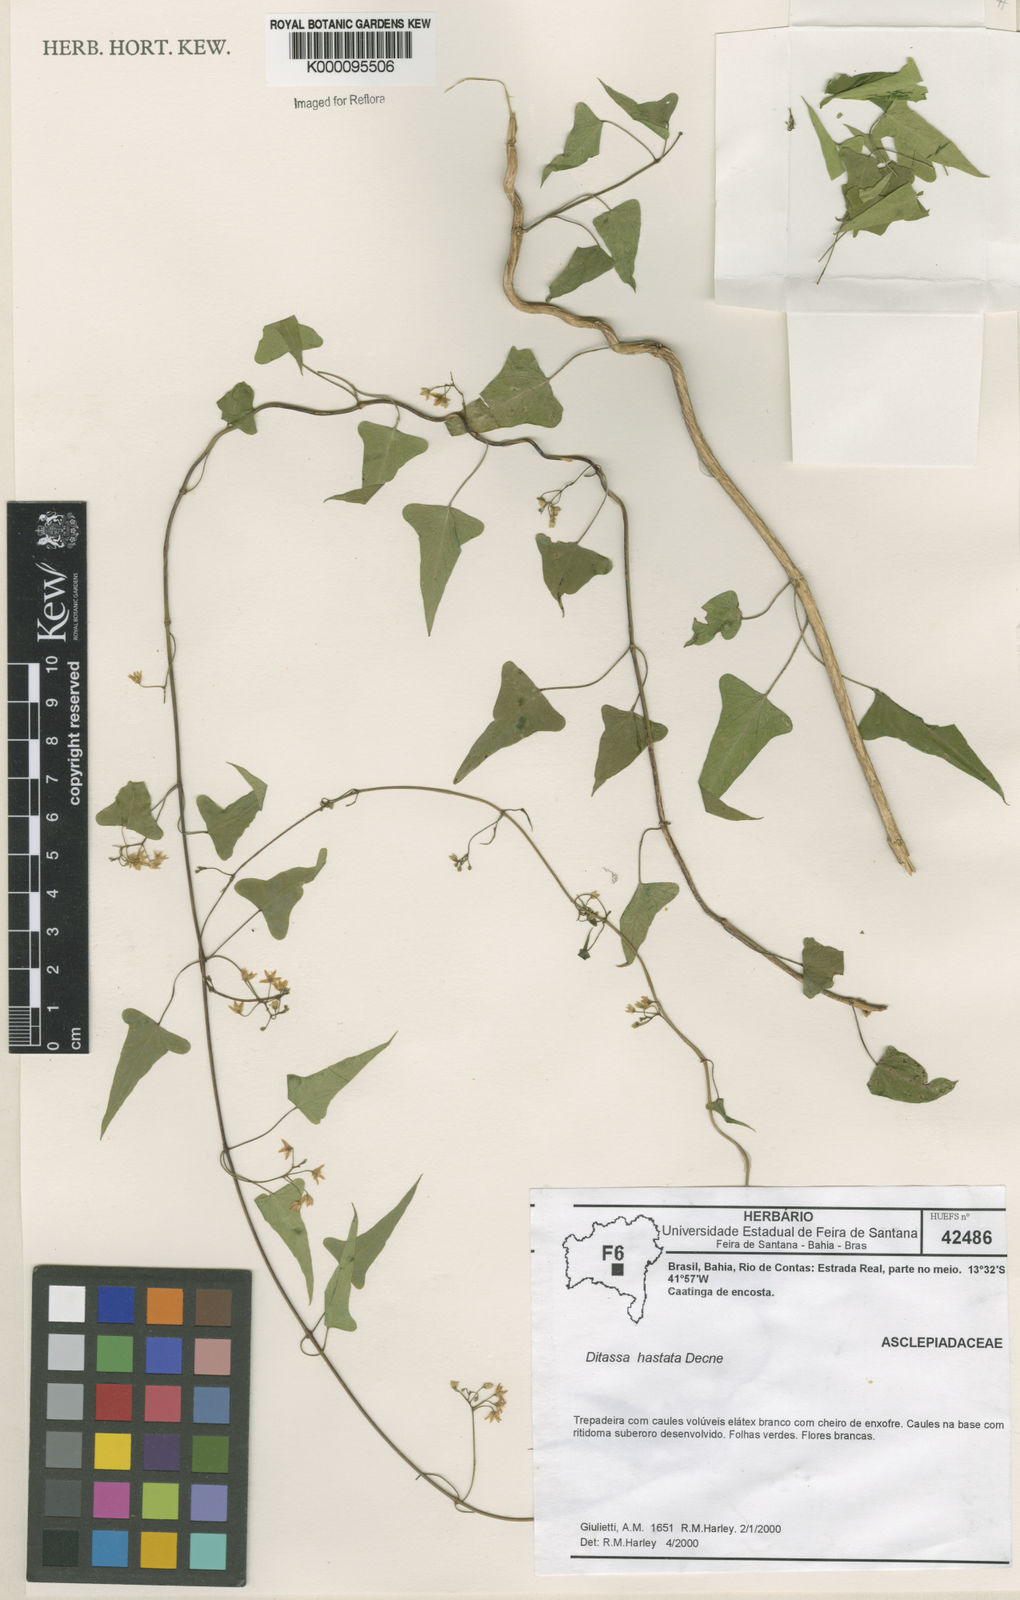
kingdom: Plantae
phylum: Tracheophyta
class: Magnoliopsida
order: Gentianales
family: Apocynaceae
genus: Ditassa
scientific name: Ditassa hastata
